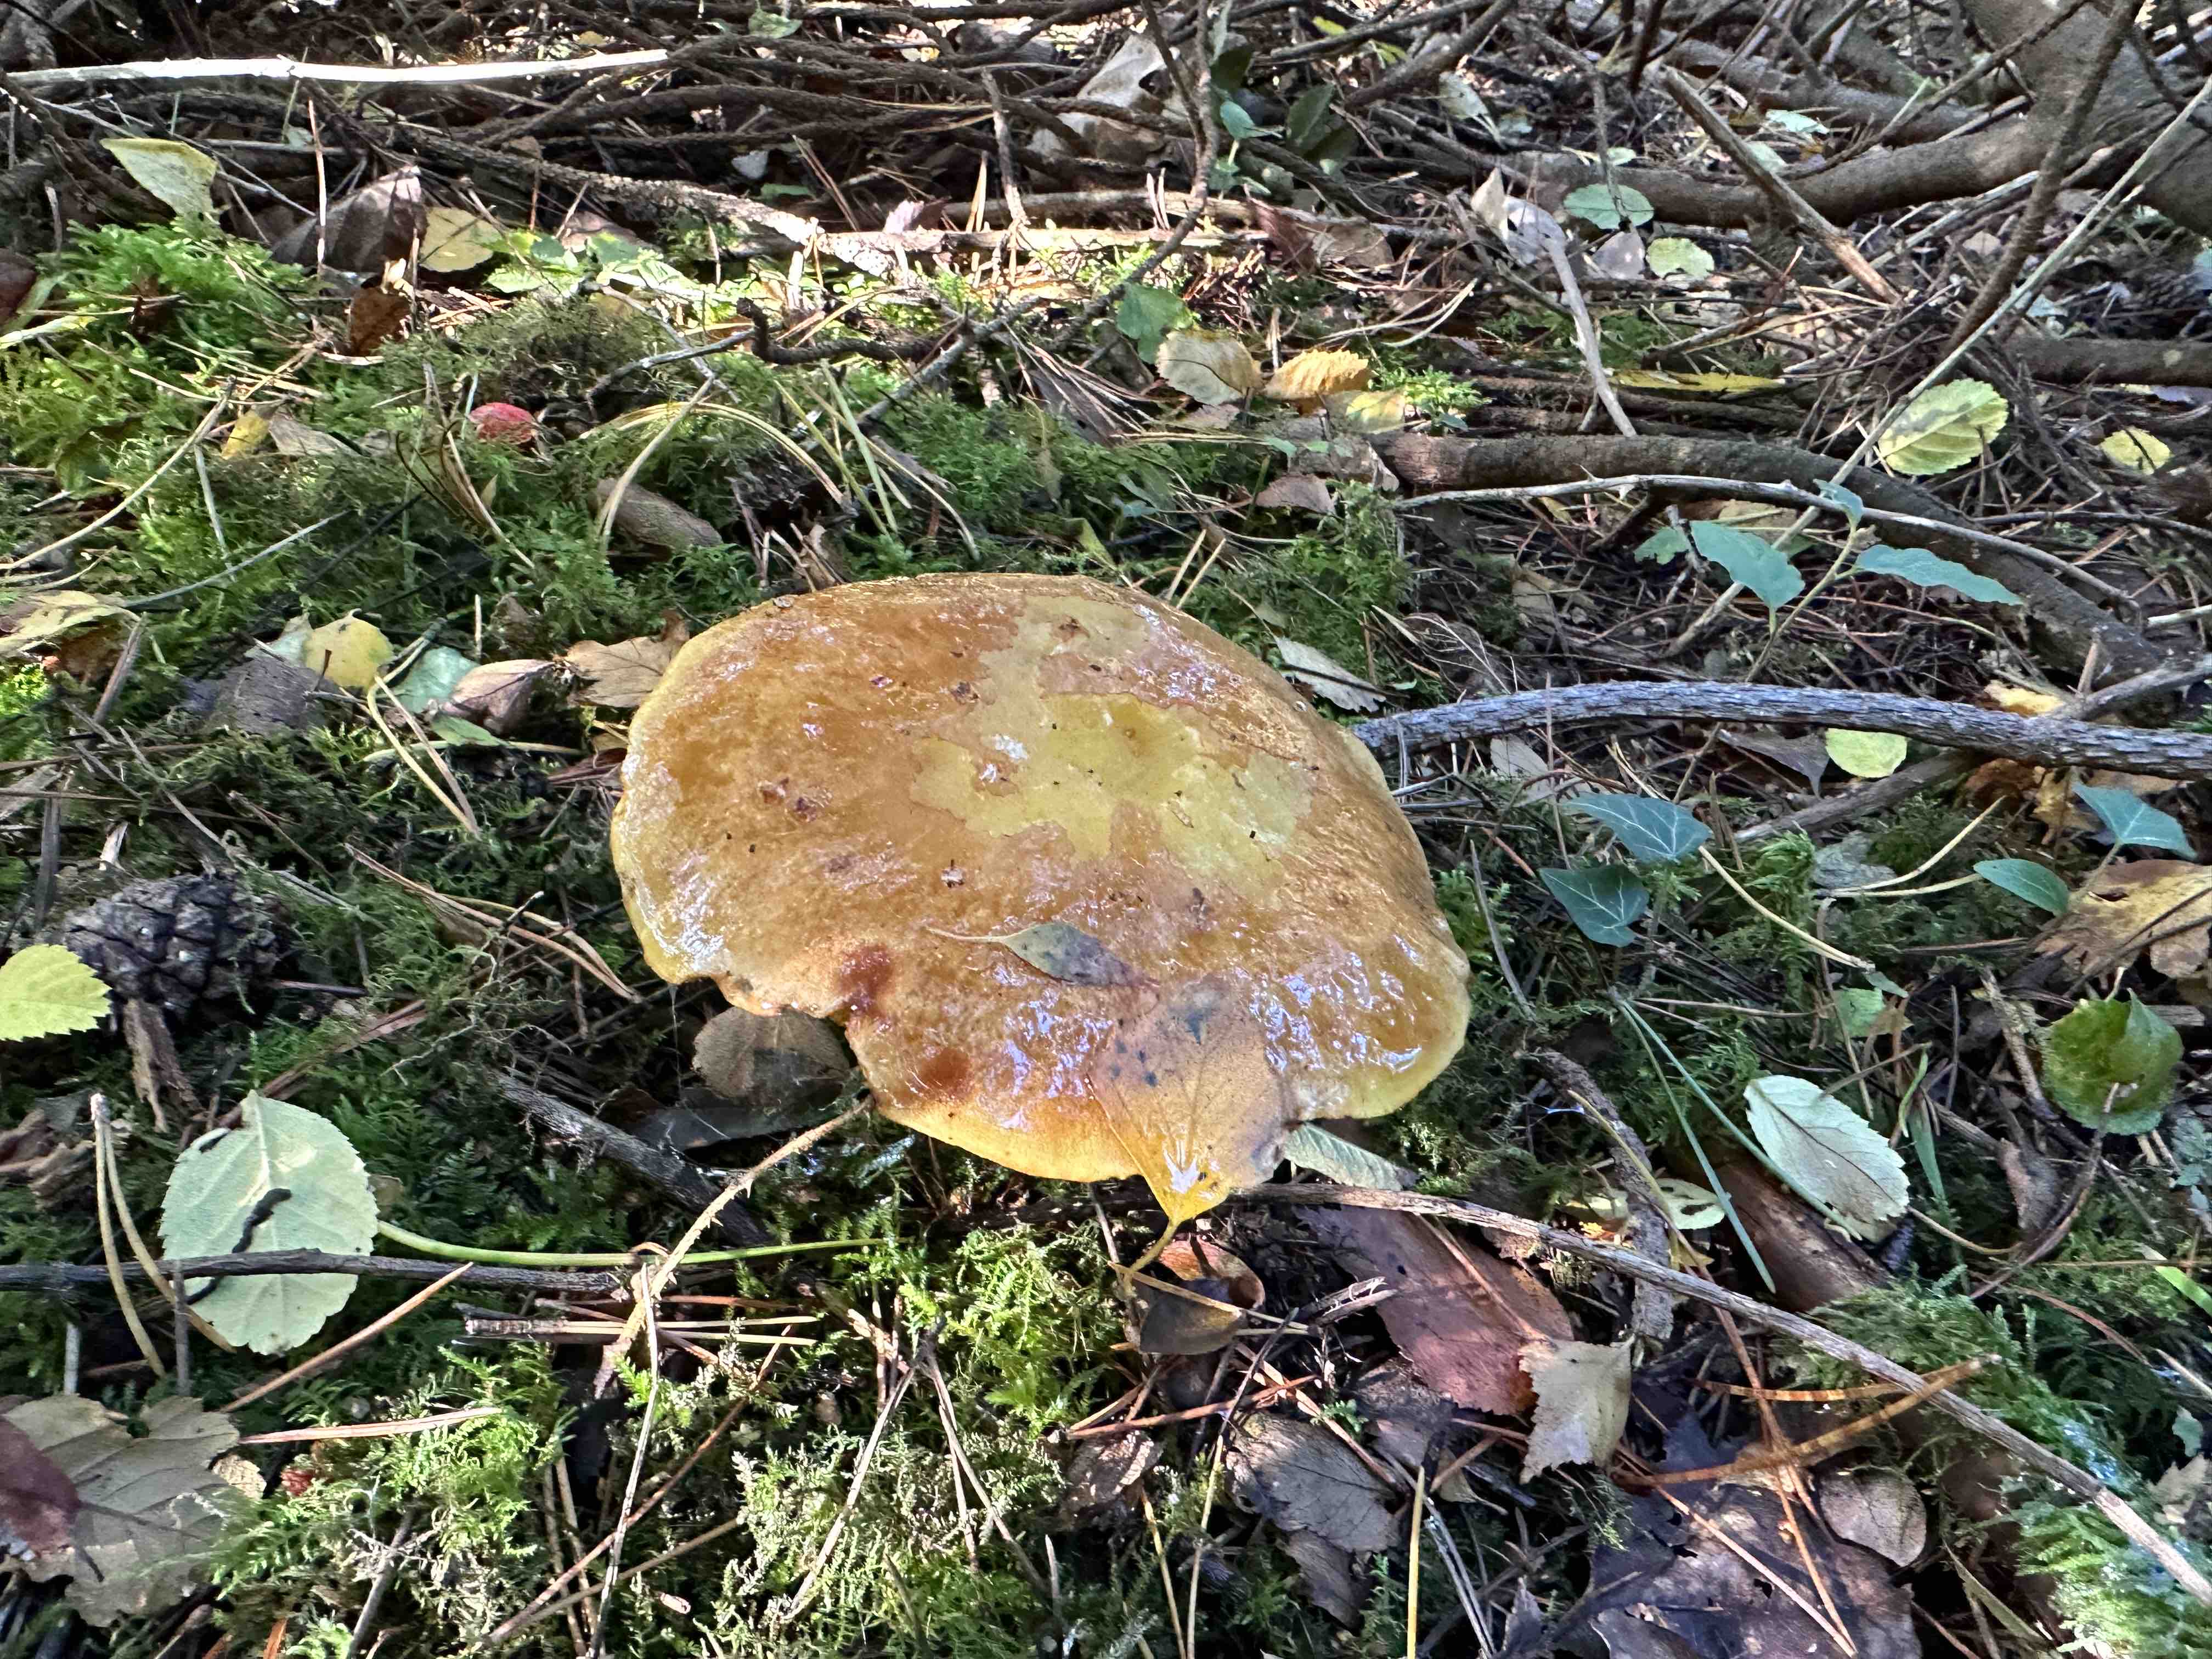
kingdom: Fungi
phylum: Basidiomycota
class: Agaricomycetes
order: Boletales
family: Suillaceae
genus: Suillus
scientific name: Suillus grevillei
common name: lærke-slimrørhat
